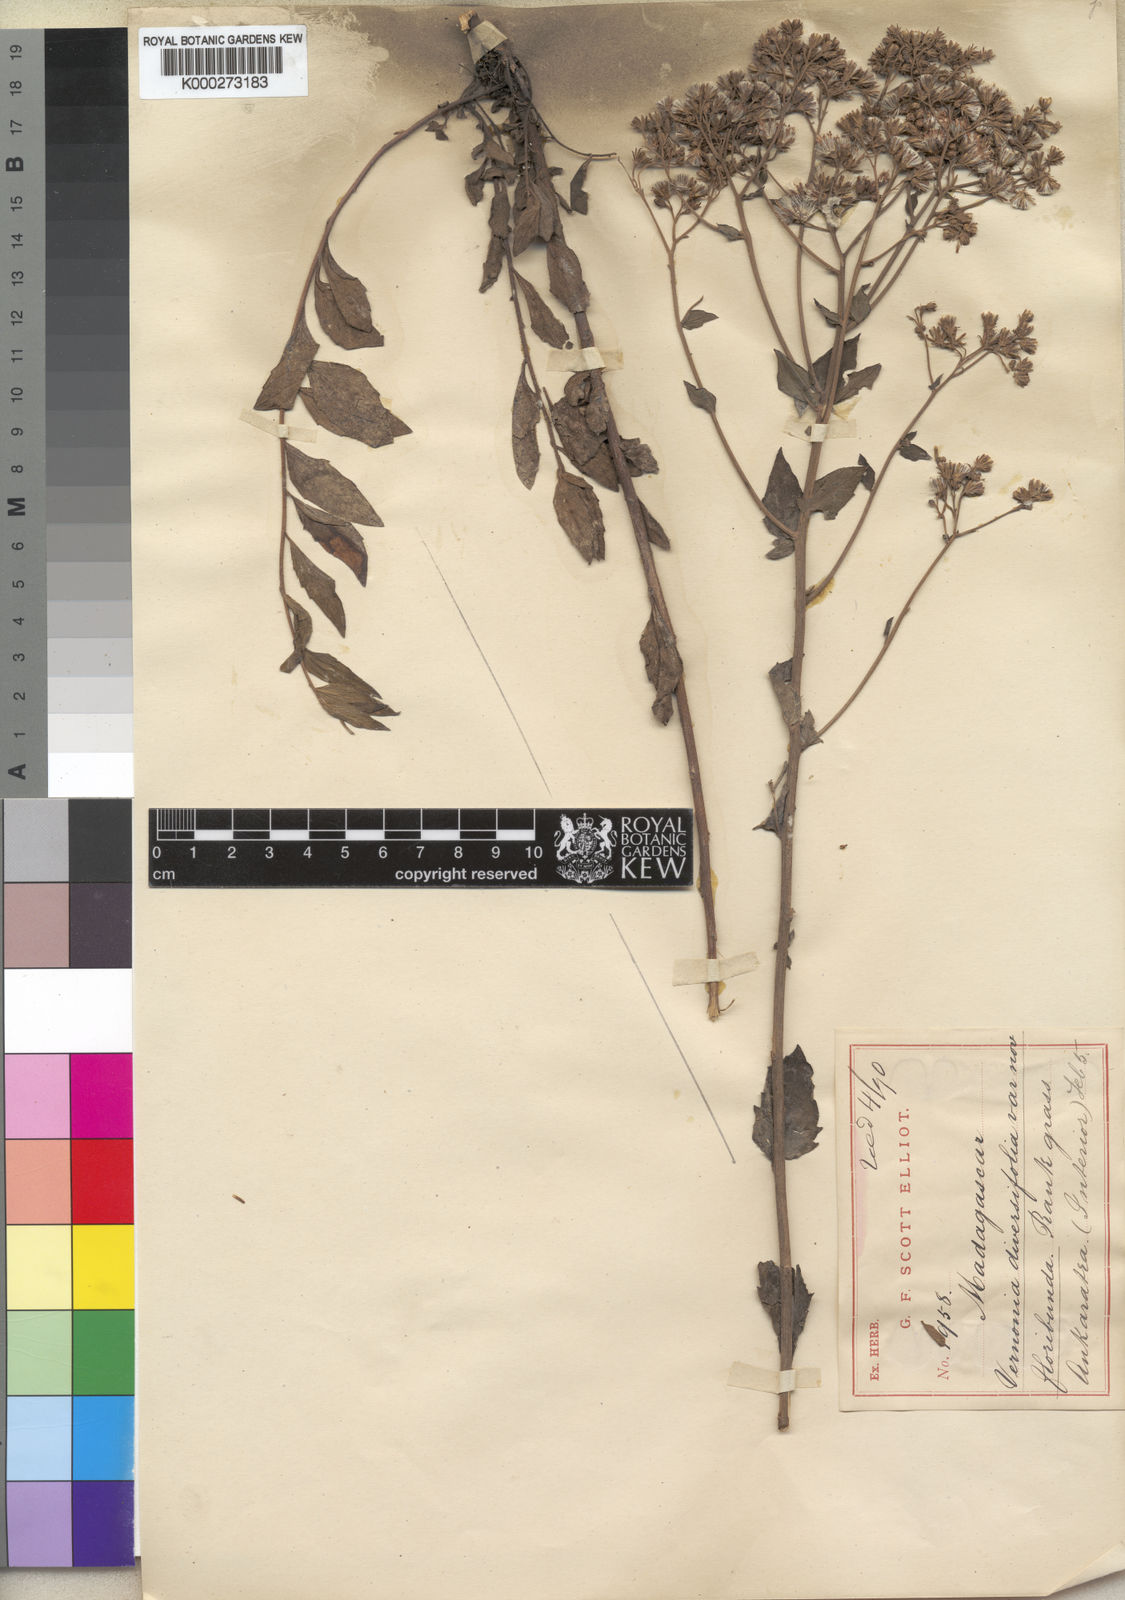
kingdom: Plantae
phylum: Tracheophyta
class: Magnoliopsida
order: Asterales
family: Asteraceae
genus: Vernonia
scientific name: Vernonia diversifolia
